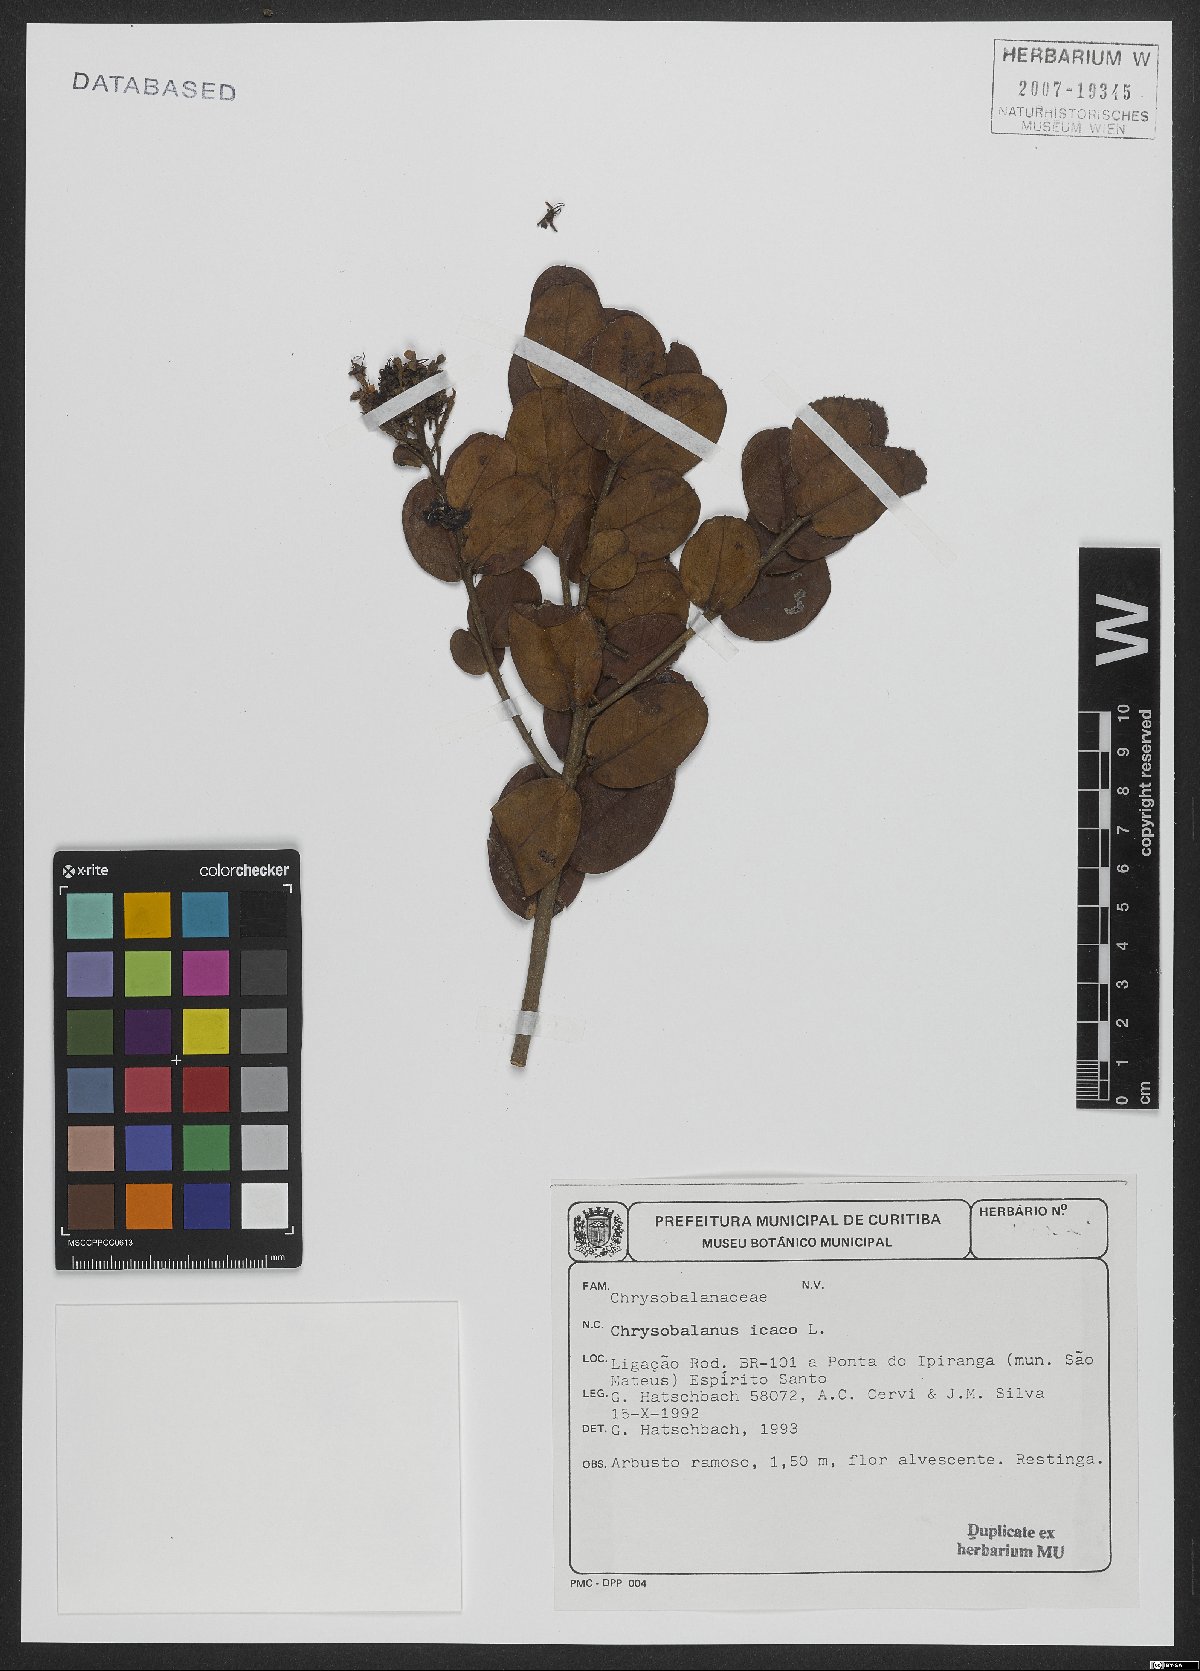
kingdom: Plantae
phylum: Tracheophyta
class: Magnoliopsida
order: Malpighiales
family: Chrysobalanaceae
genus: Chrysobalanus
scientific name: Chrysobalanus icaco
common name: Coco plum
